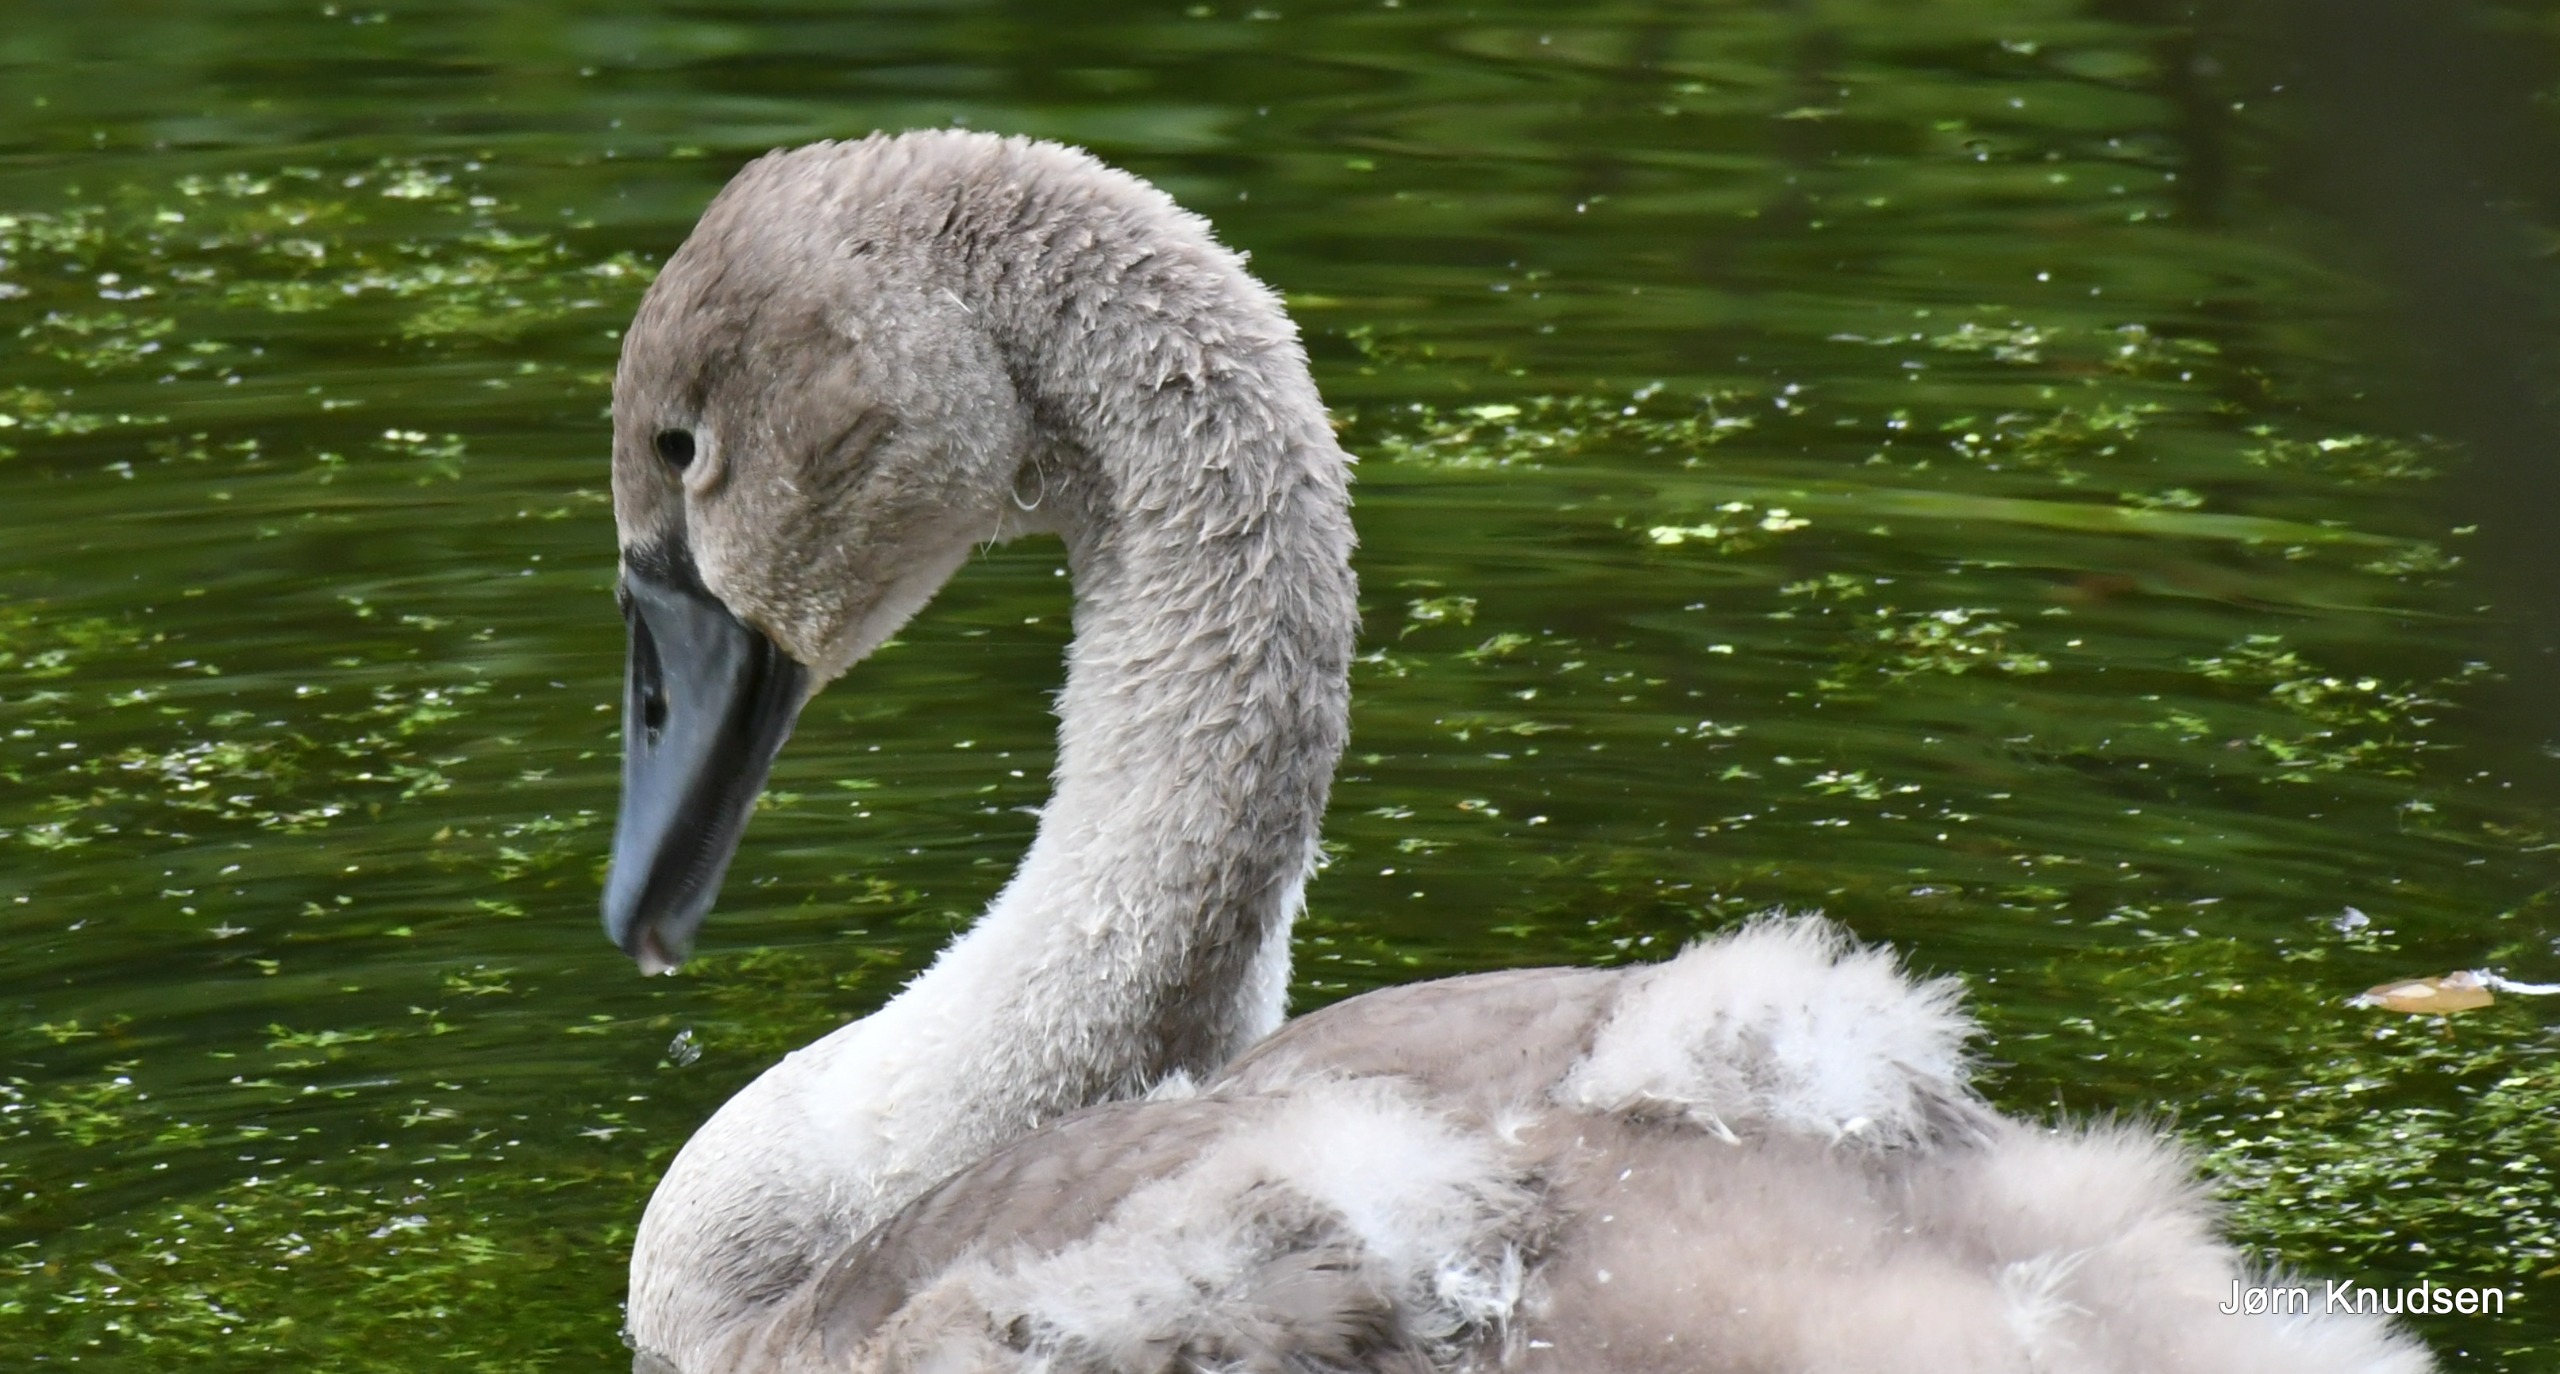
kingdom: Animalia
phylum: Chordata
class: Aves
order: Anseriformes
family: Anatidae
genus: Cygnus
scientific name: Cygnus olor
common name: Knopsvane
